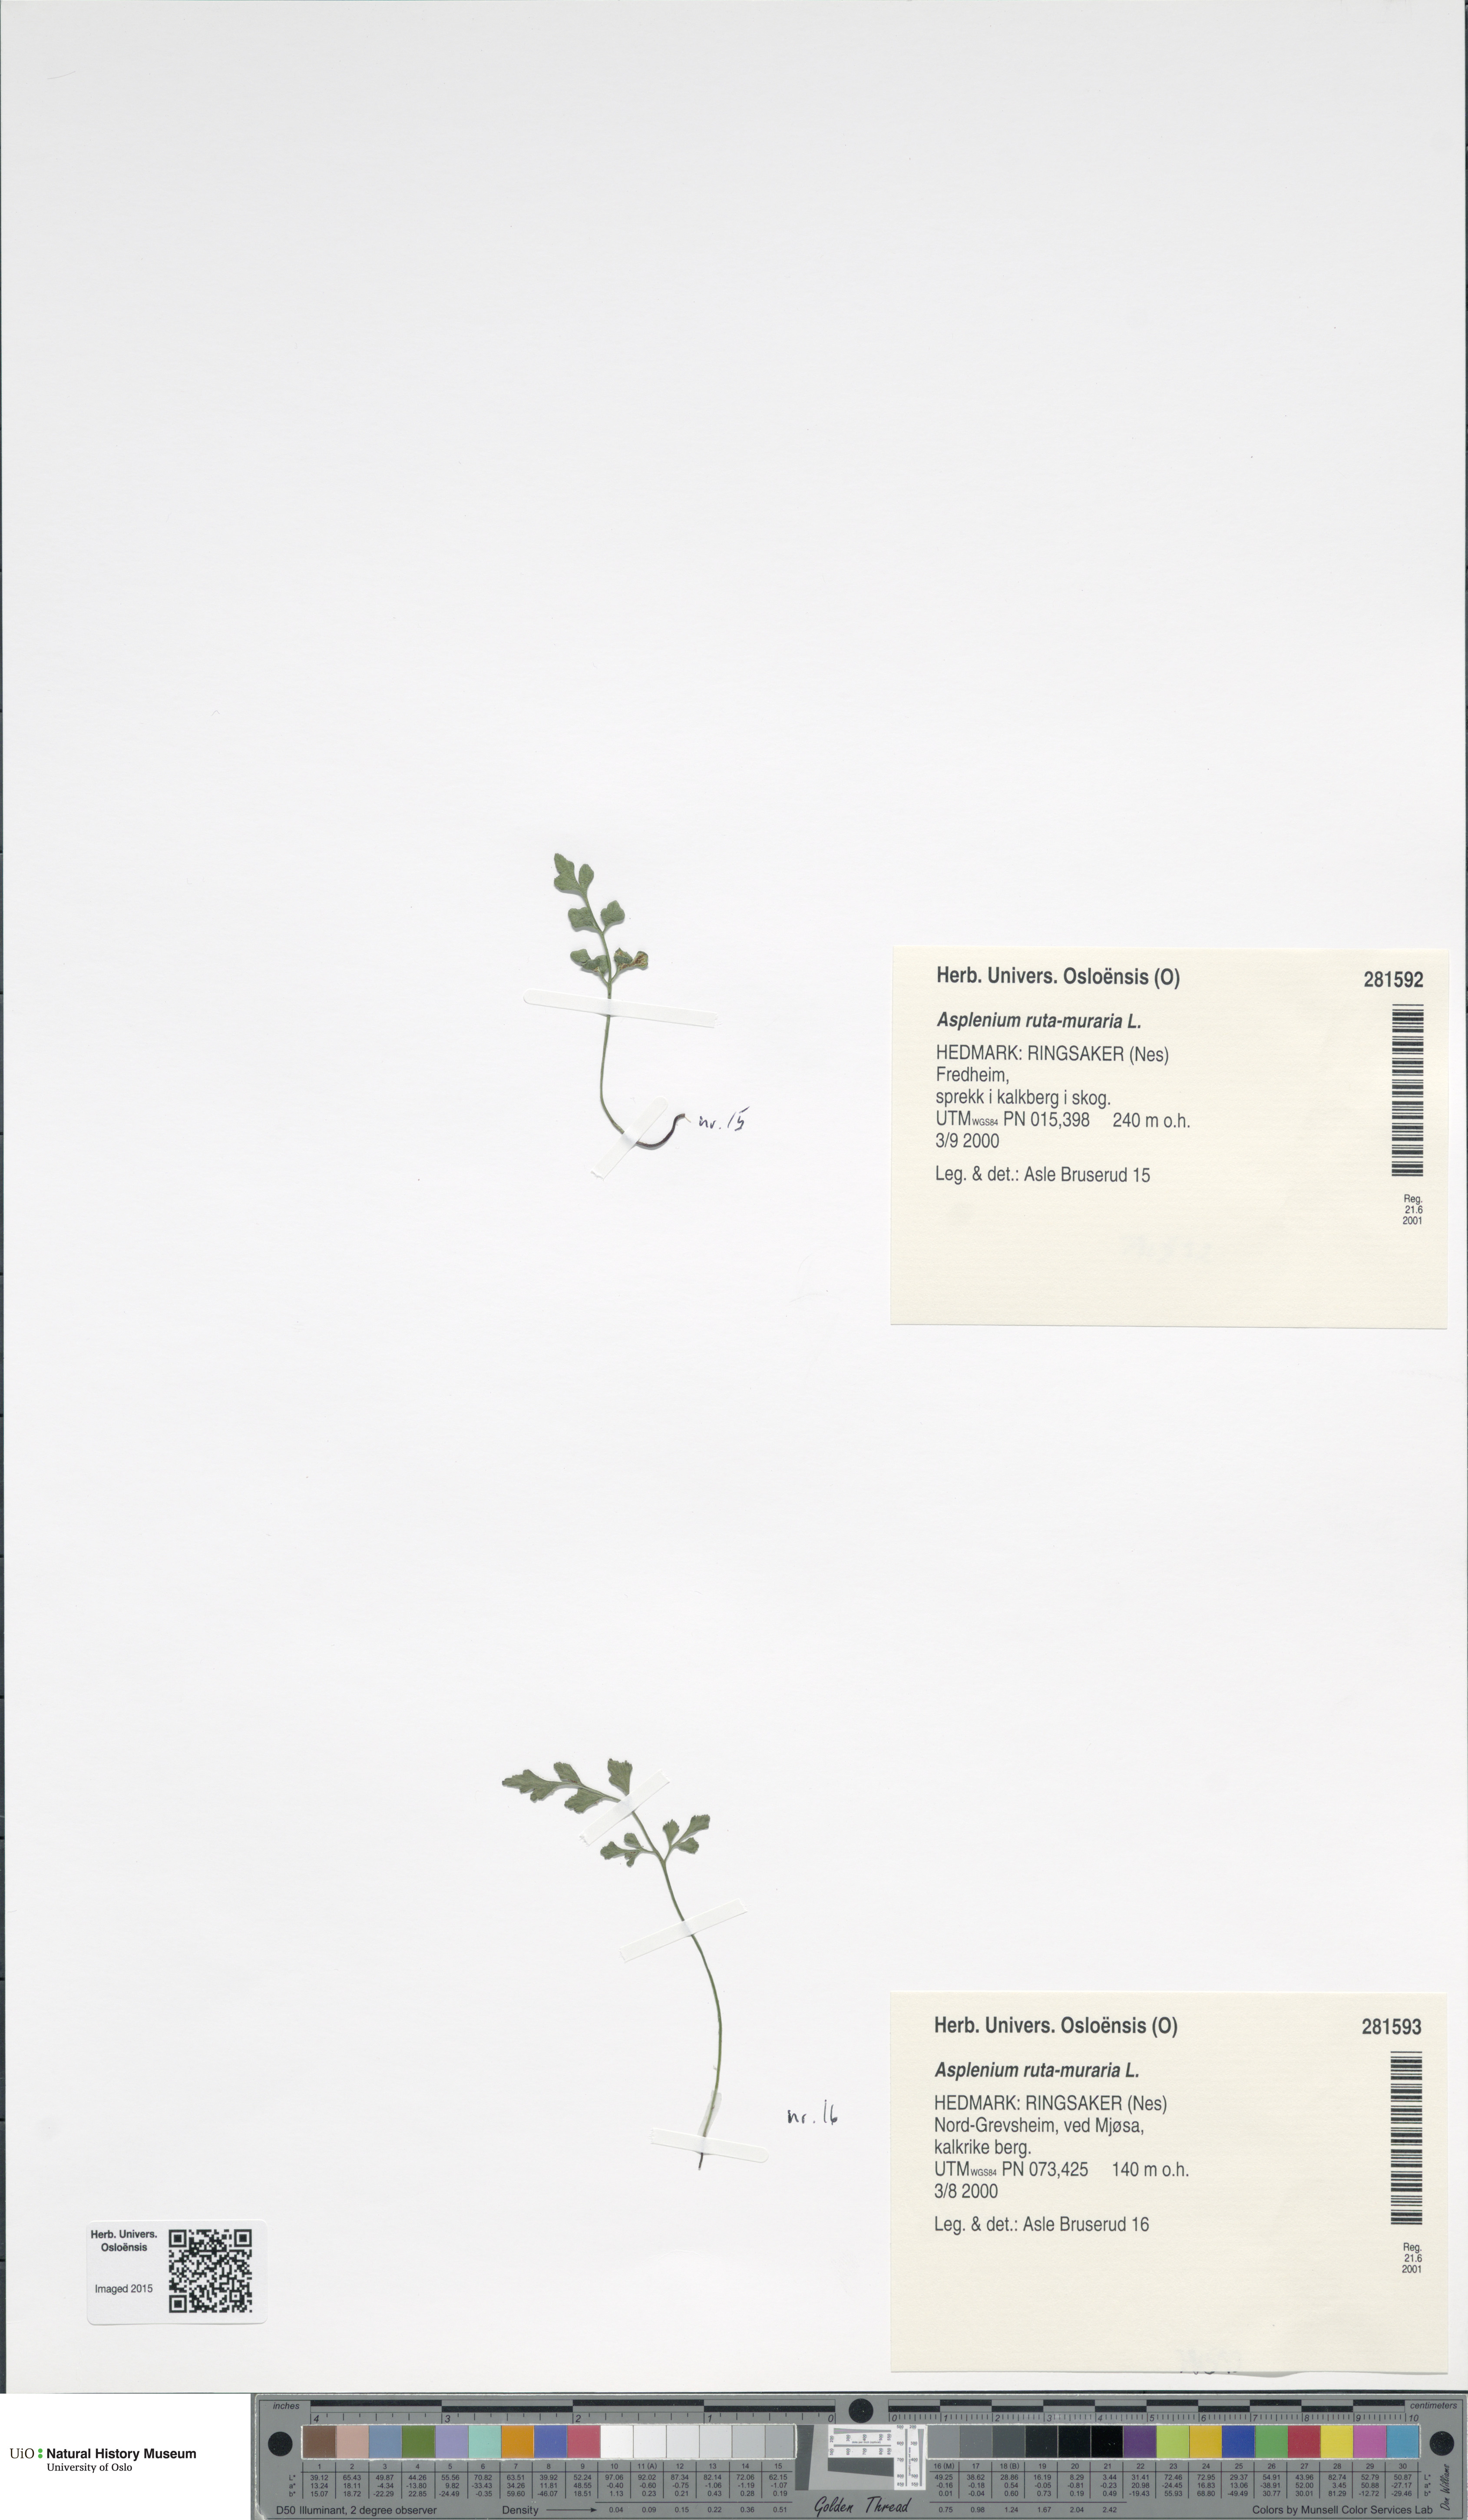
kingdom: Plantae
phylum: Tracheophyta
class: Polypodiopsida
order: Polypodiales
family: Aspleniaceae
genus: Asplenium
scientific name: Asplenium ruta-muraria
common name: Wall-rue
